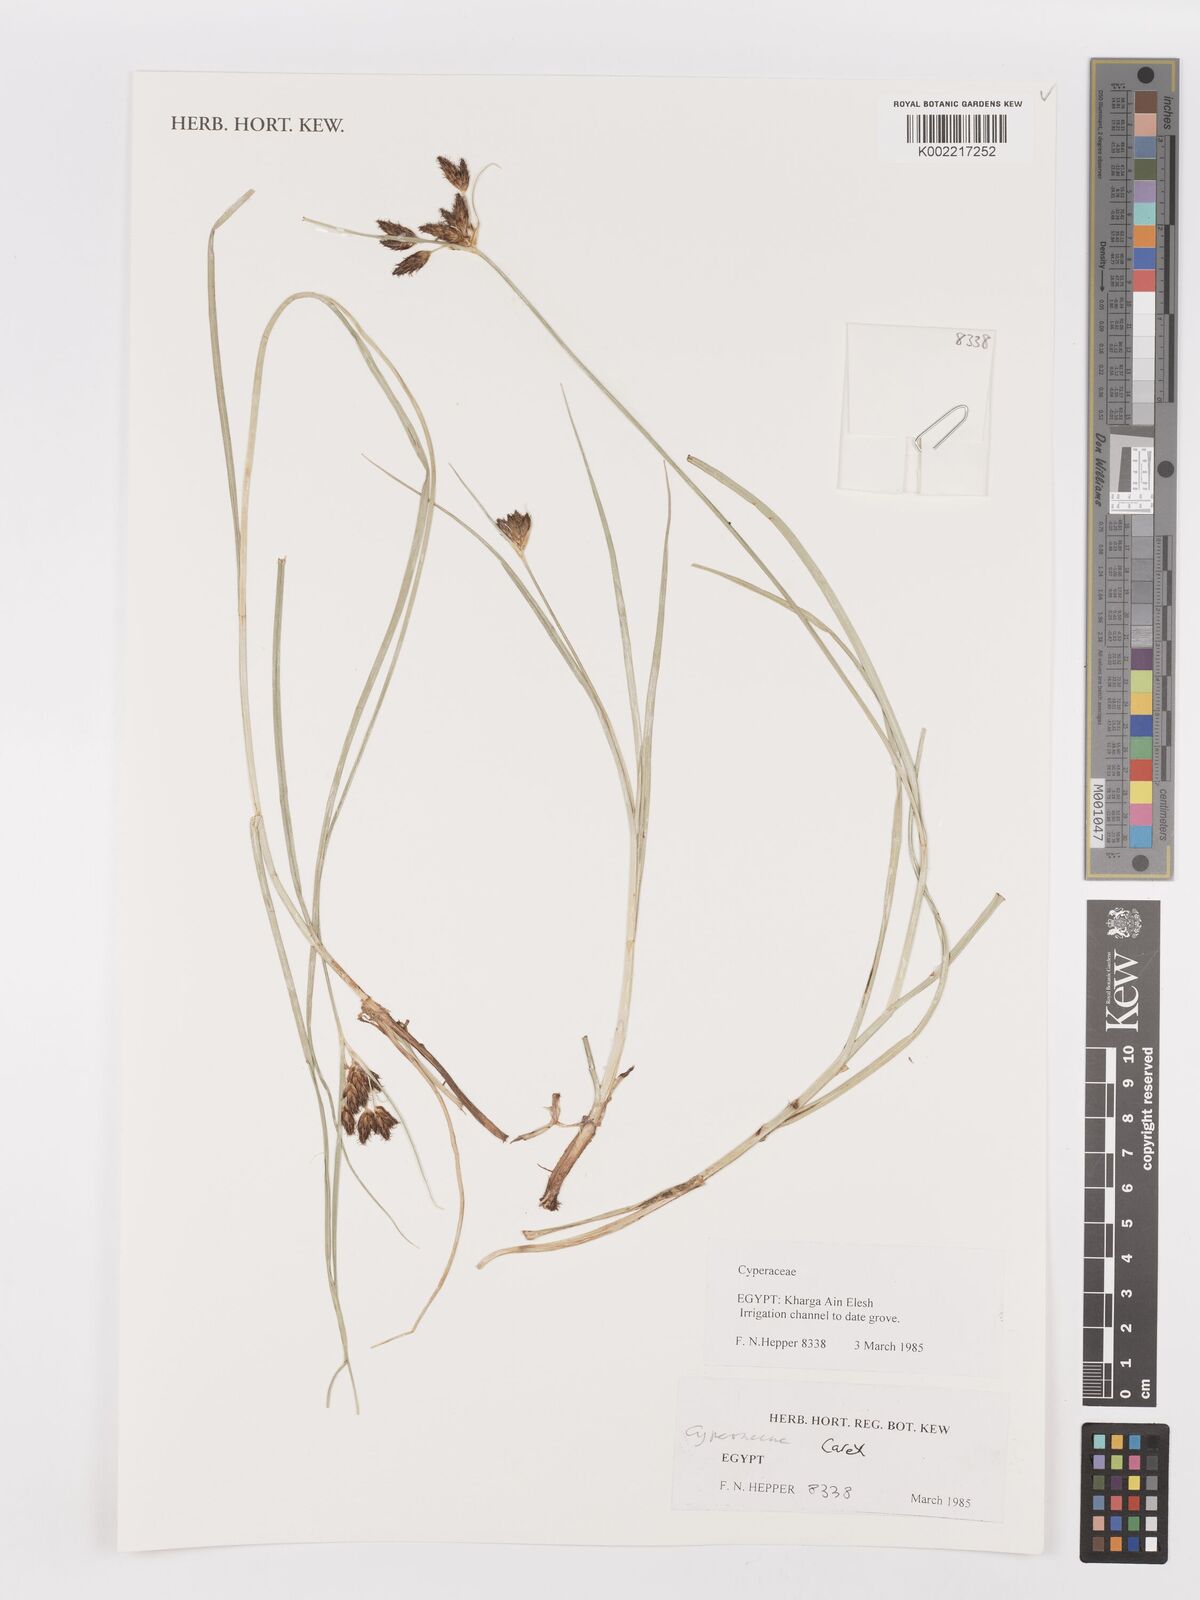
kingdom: Plantae
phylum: Tracheophyta
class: Liliopsida
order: Poales
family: Cyperaceae
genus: Carex
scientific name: Carex
